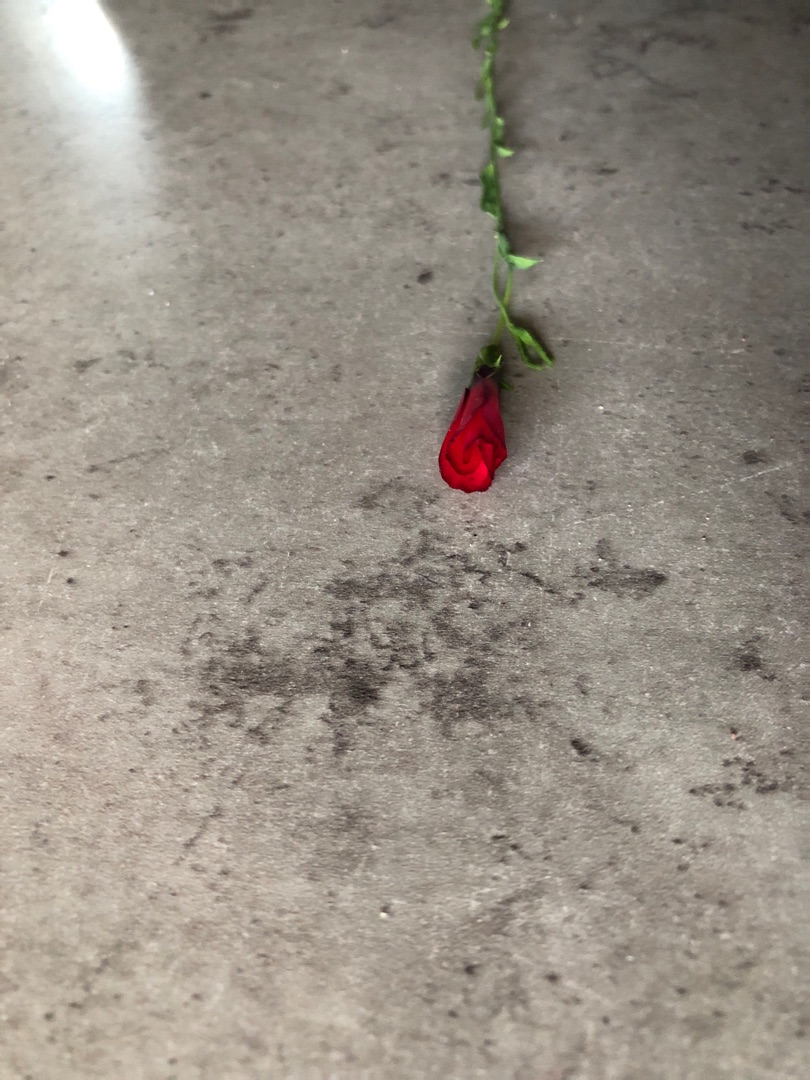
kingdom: Plantae
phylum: Tracheophyta
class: Magnoliopsida
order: Malpighiales
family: Linaceae
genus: Linum
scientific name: Linum grandiflorum
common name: Rød hør
